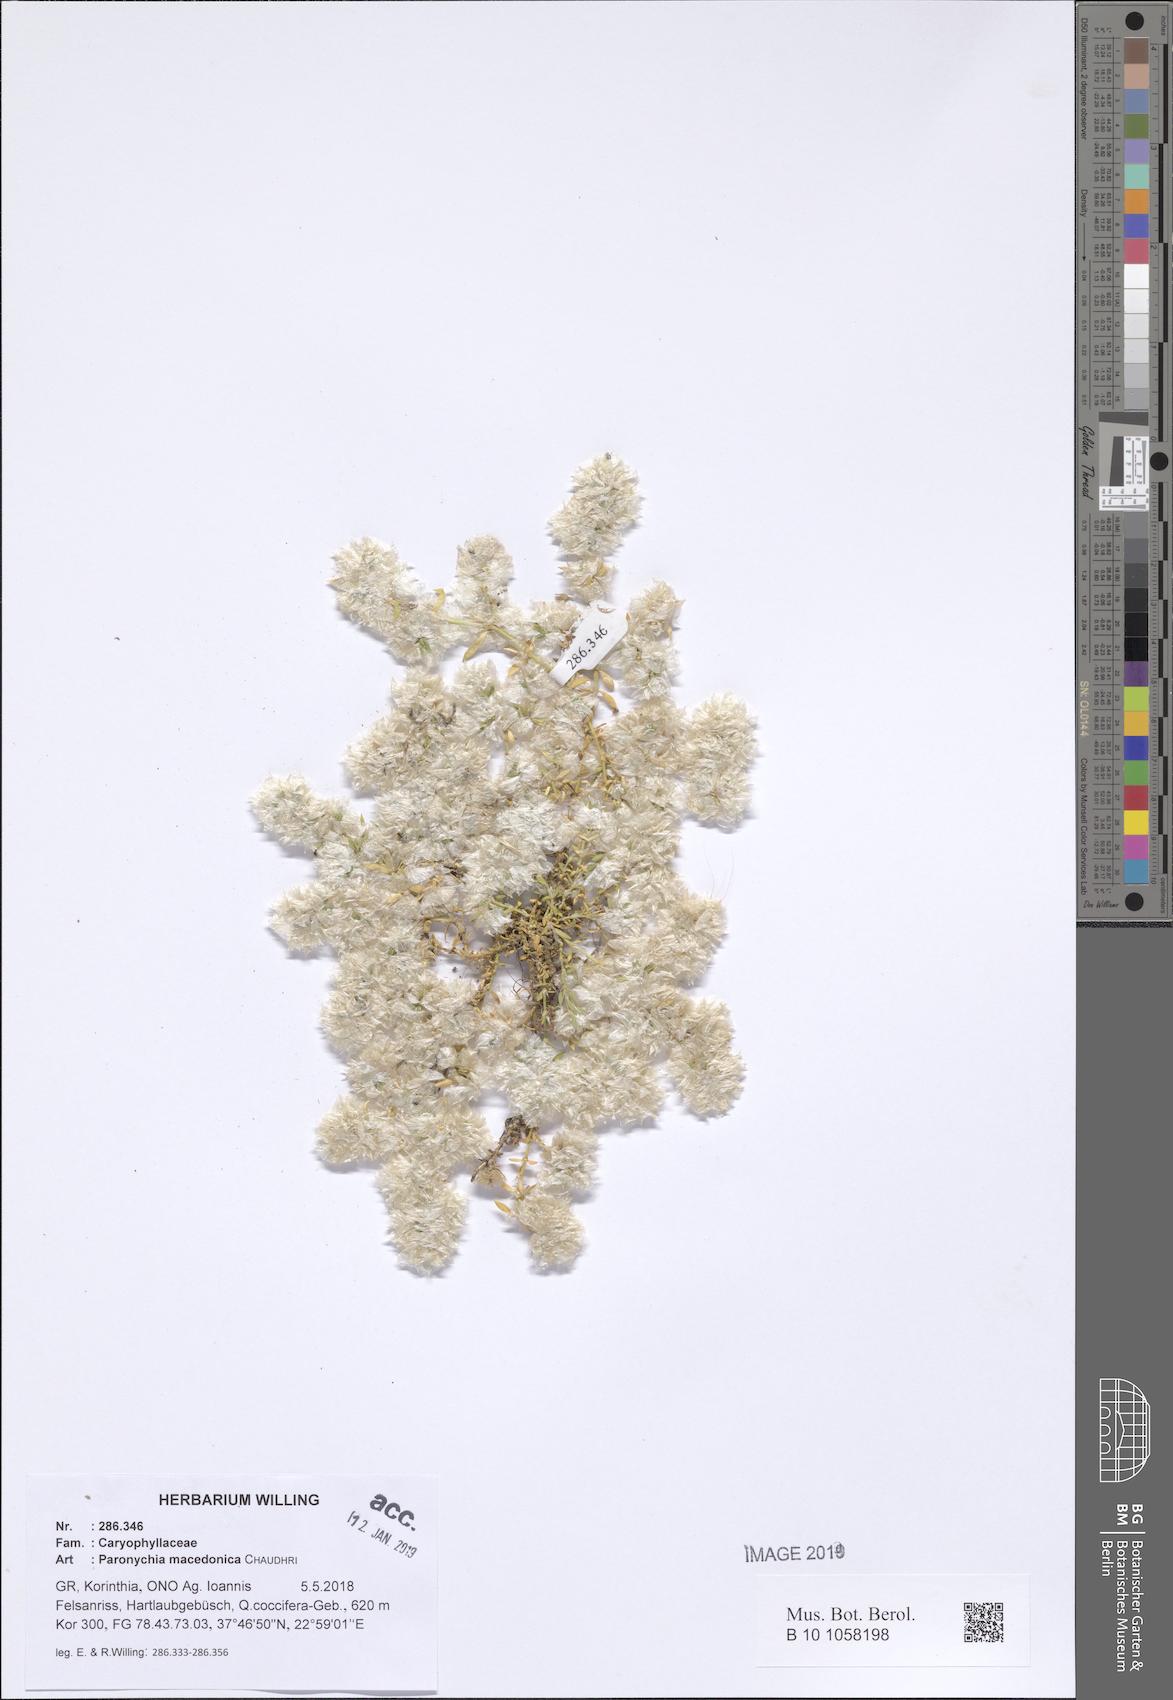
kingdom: Plantae
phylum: Tracheophyta
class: Magnoliopsida
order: Caryophyllales
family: Caryophyllaceae
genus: Paronychia
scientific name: Paronychia macedonica
